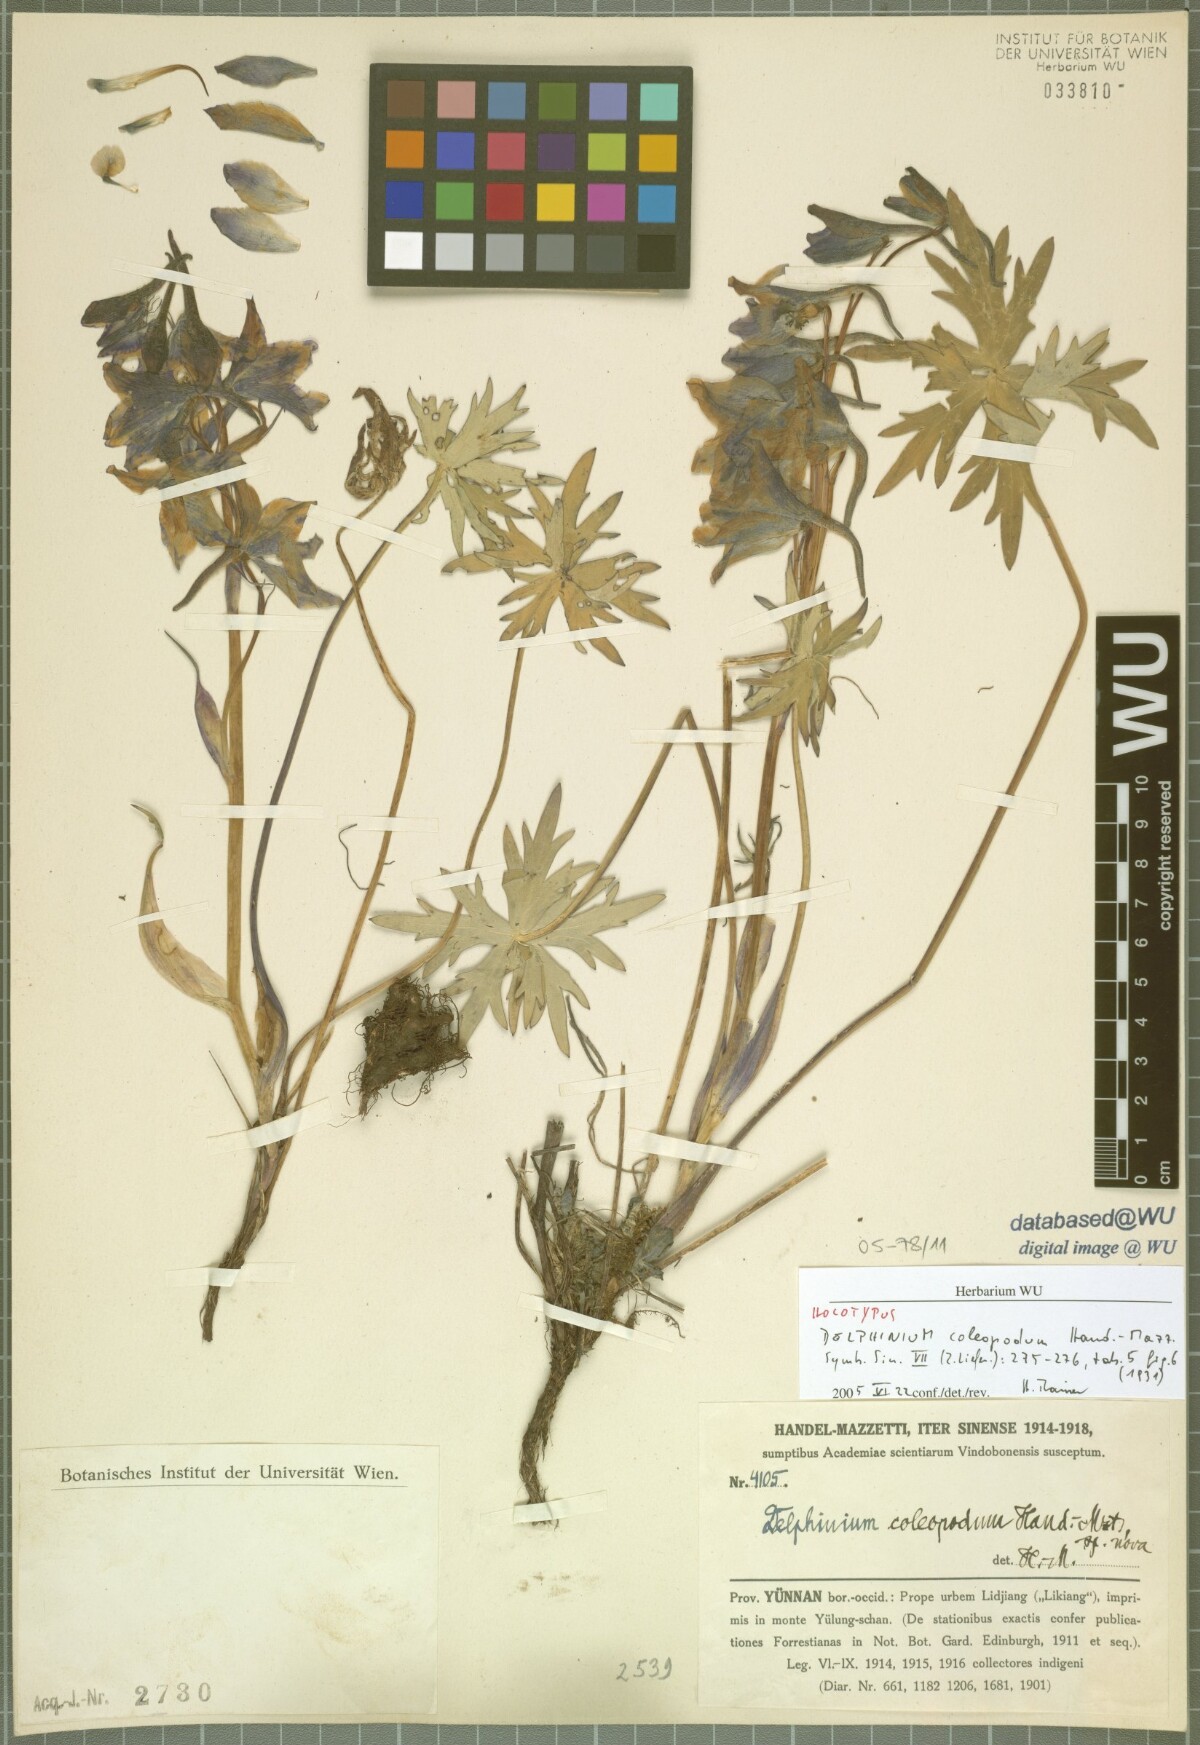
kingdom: Plantae
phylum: Tracheophyta
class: Magnoliopsida
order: Ranunculales
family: Ranunculaceae
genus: Delphinium
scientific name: Delphinium coleopodum
